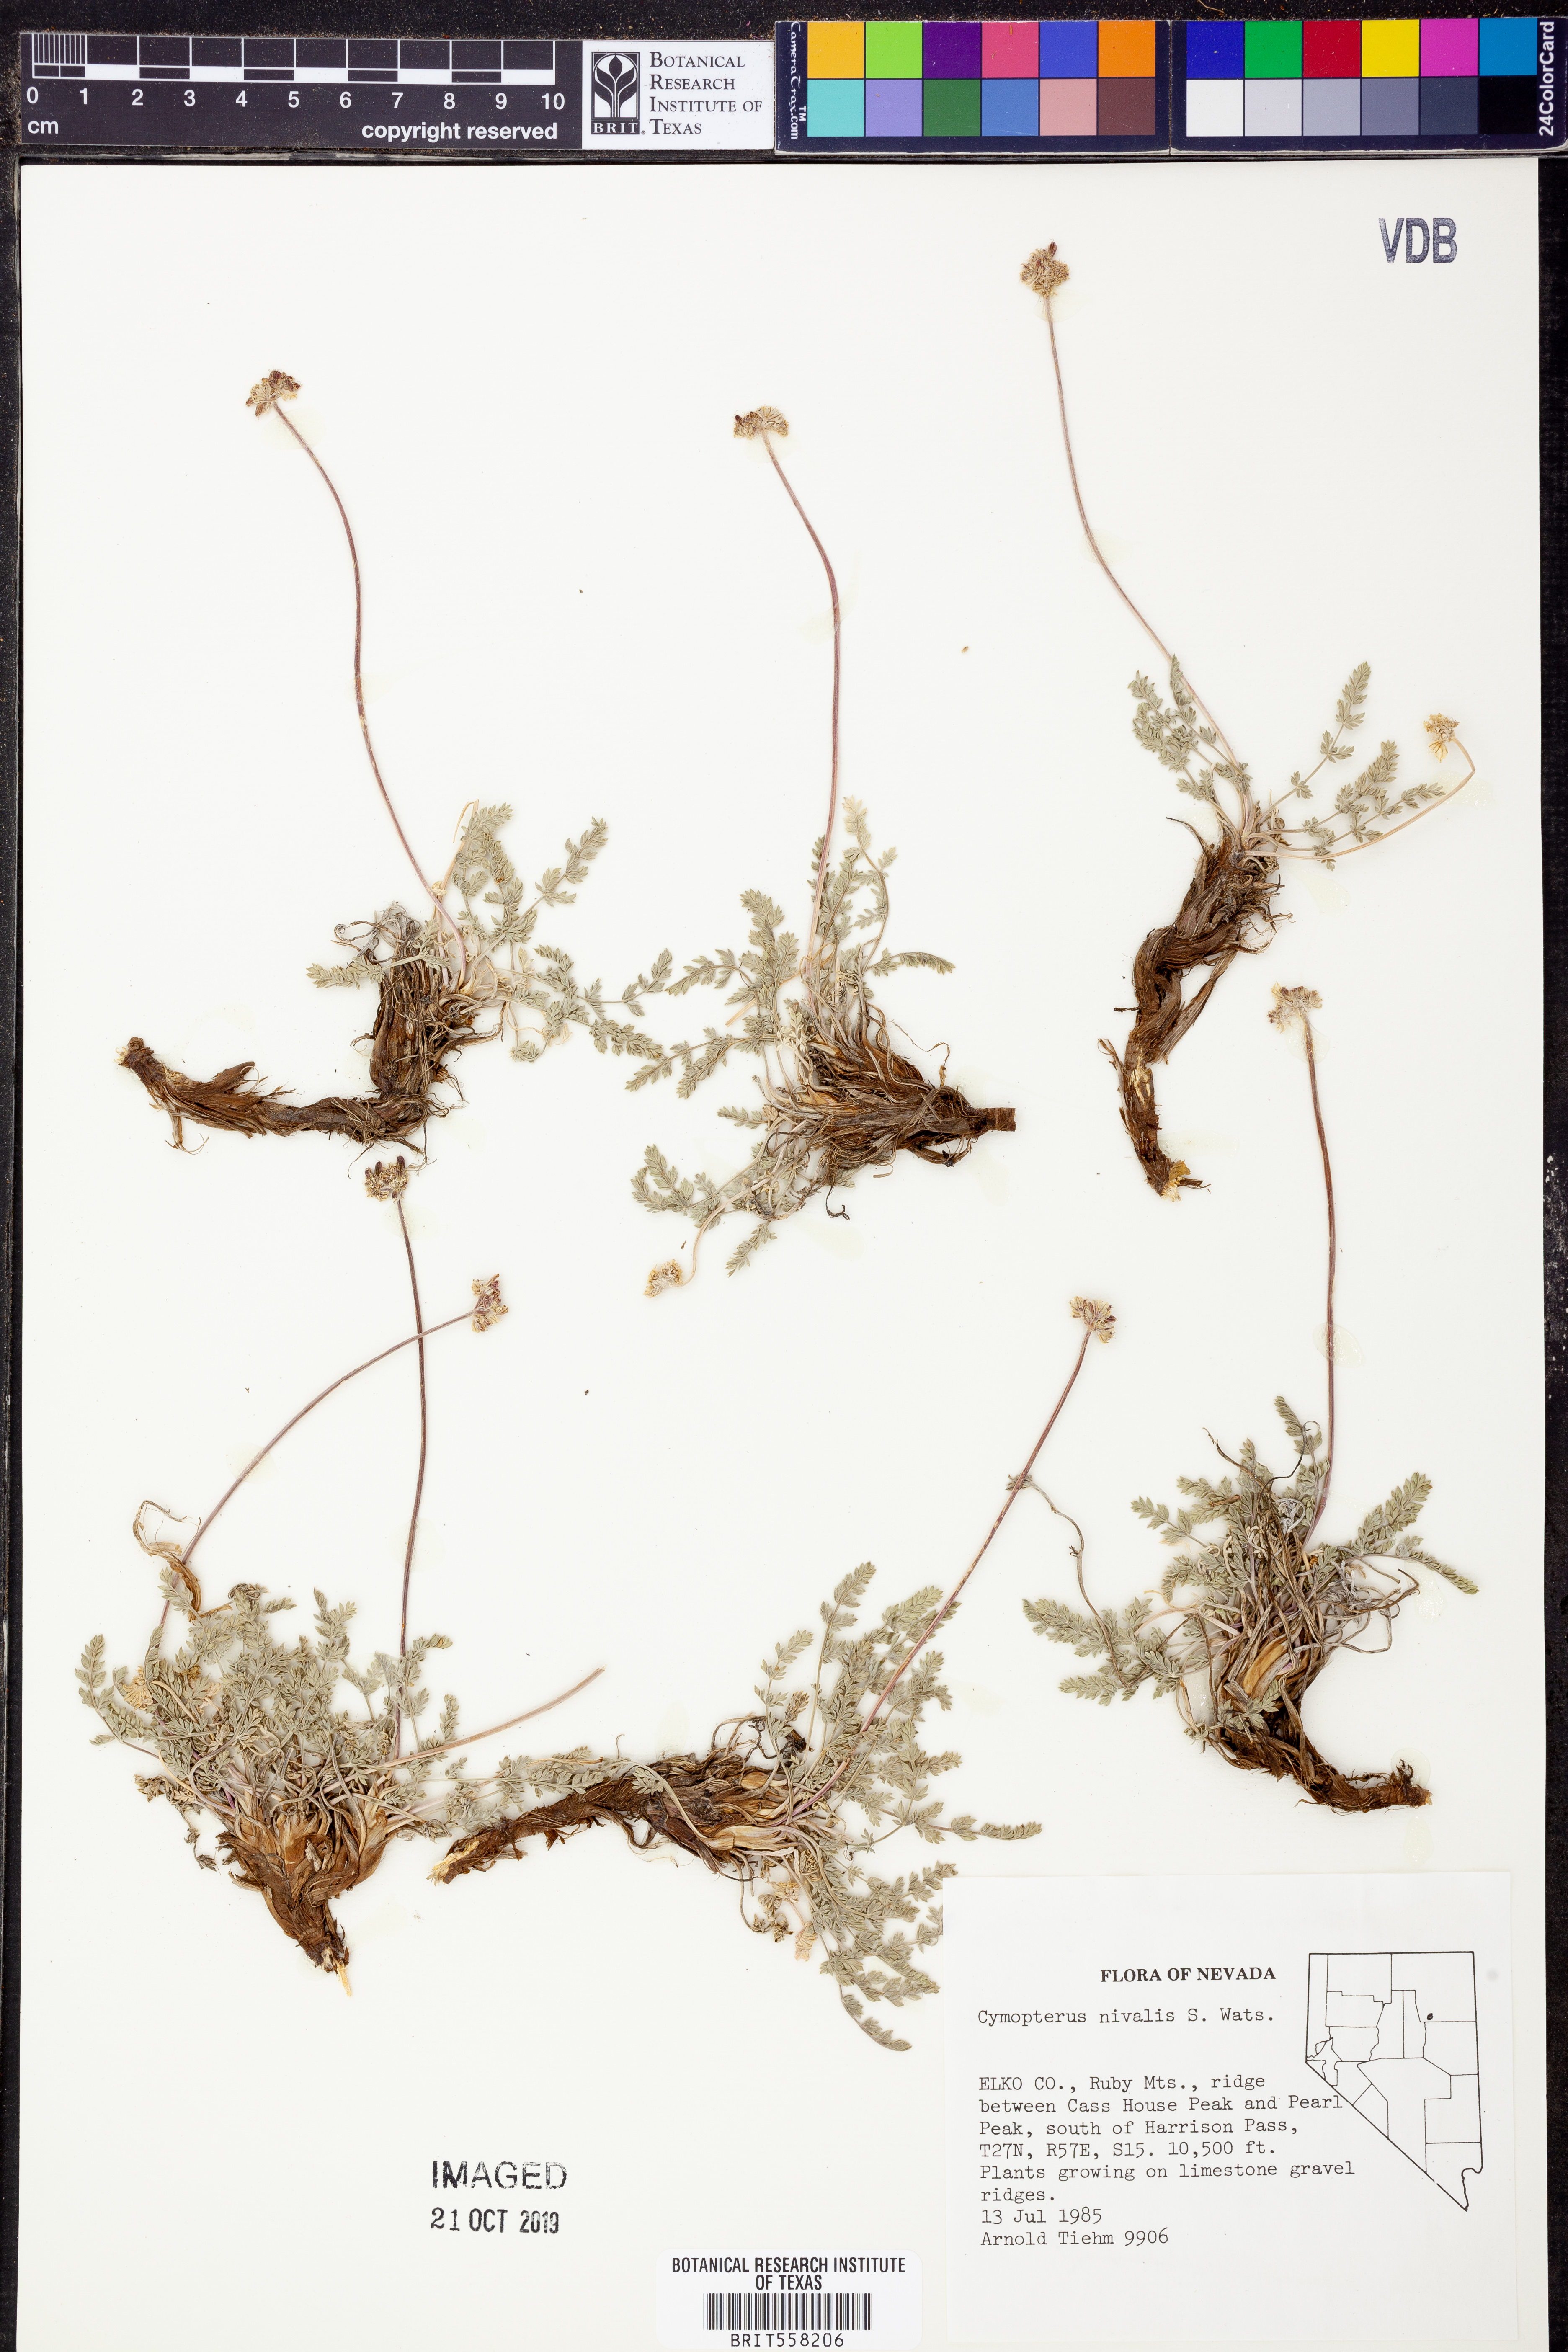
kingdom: Plantae
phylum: Tracheophyta
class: Magnoliopsida
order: Apiales
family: Apiaceae
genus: Pseudocymopterus
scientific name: Pseudocymopterus nivalis
